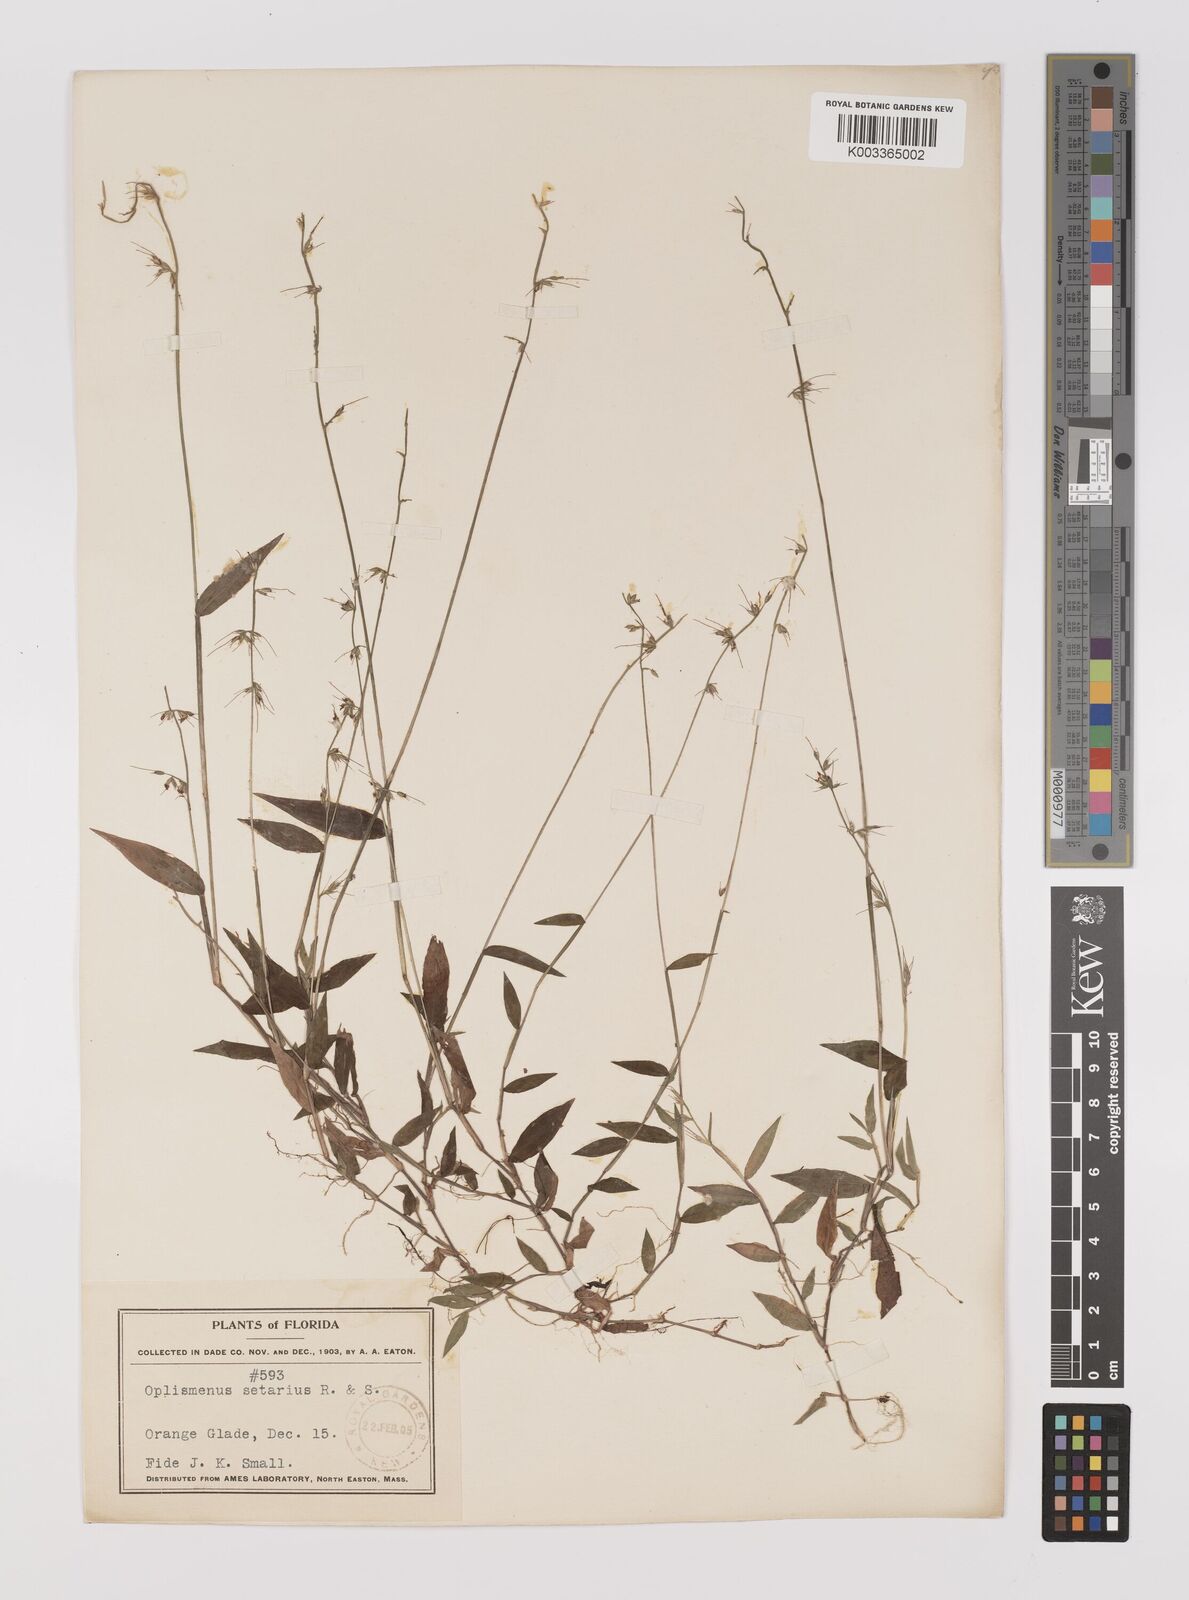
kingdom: Plantae
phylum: Tracheophyta
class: Liliopsida
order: Poales
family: Poaceae
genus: Oplismenus
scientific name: Oplismenus undulatifolius
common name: Wavyleaf basketgrass
